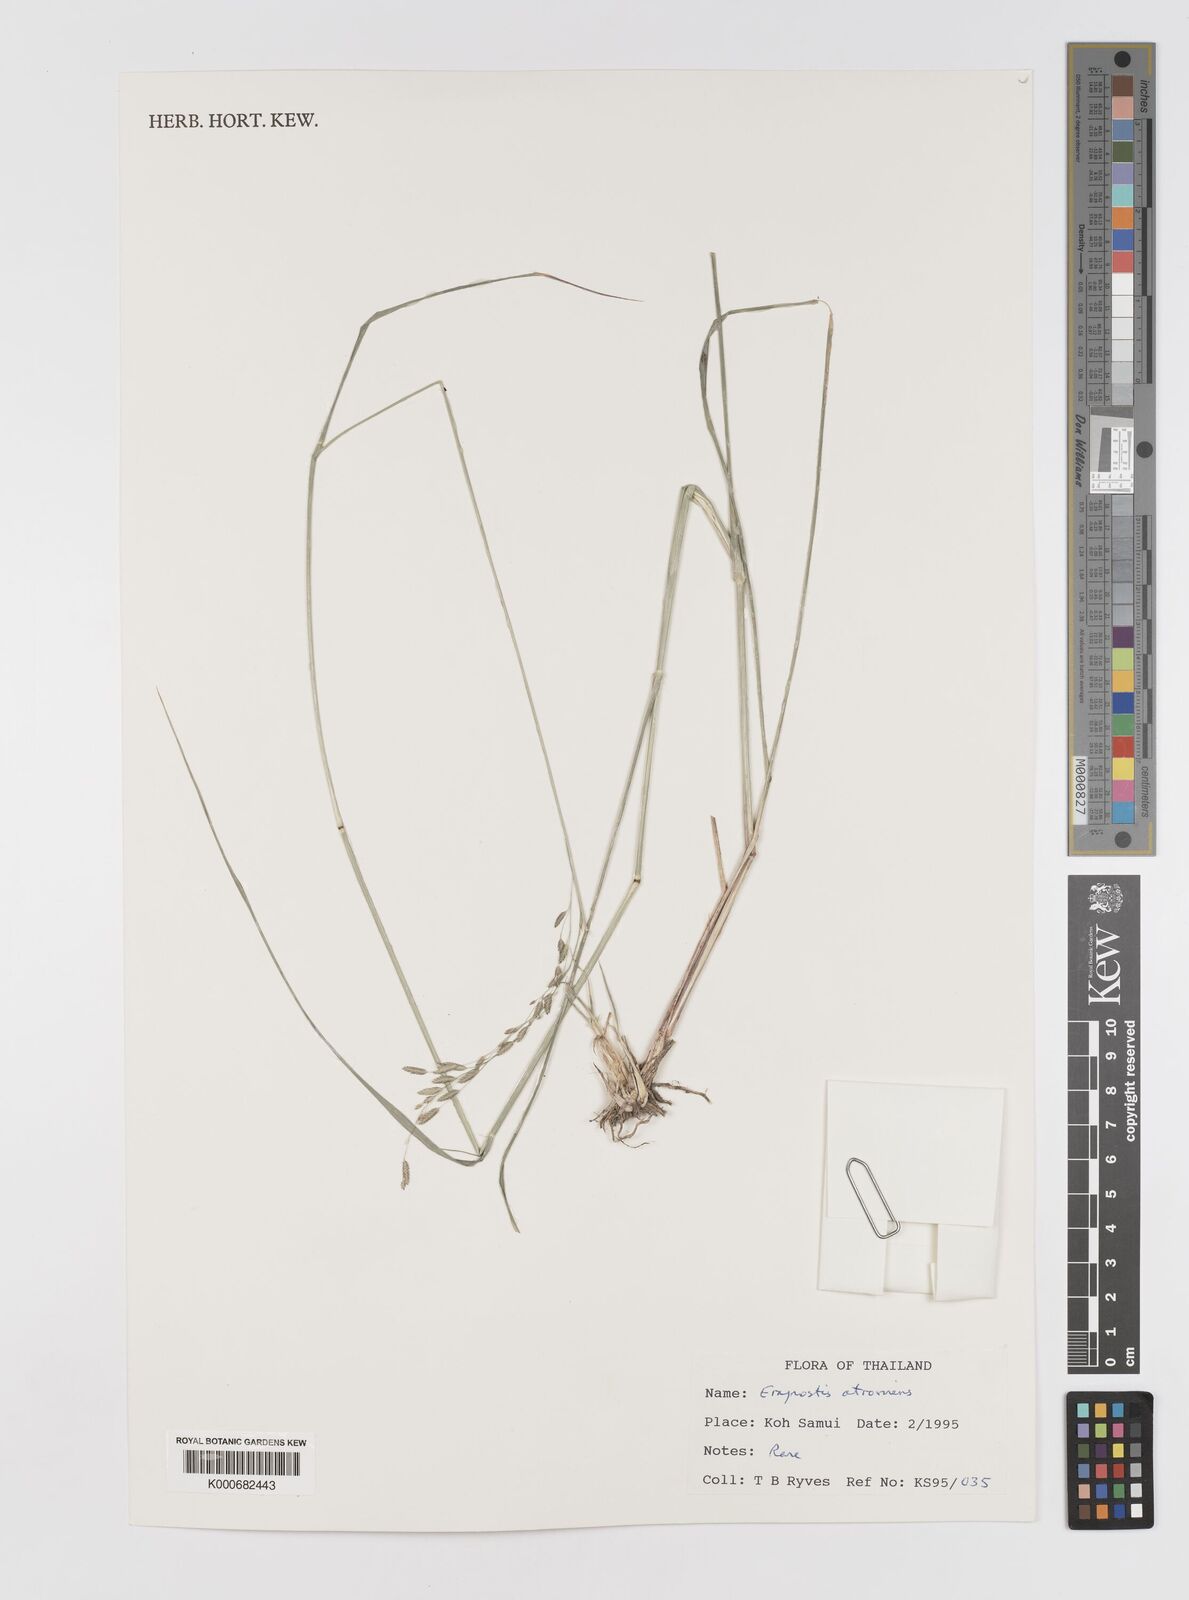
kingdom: Plantae
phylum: Tracheophyta
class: Liliopsida
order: Poales
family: Poaceae
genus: Eragrostis
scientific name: Eragrostis
